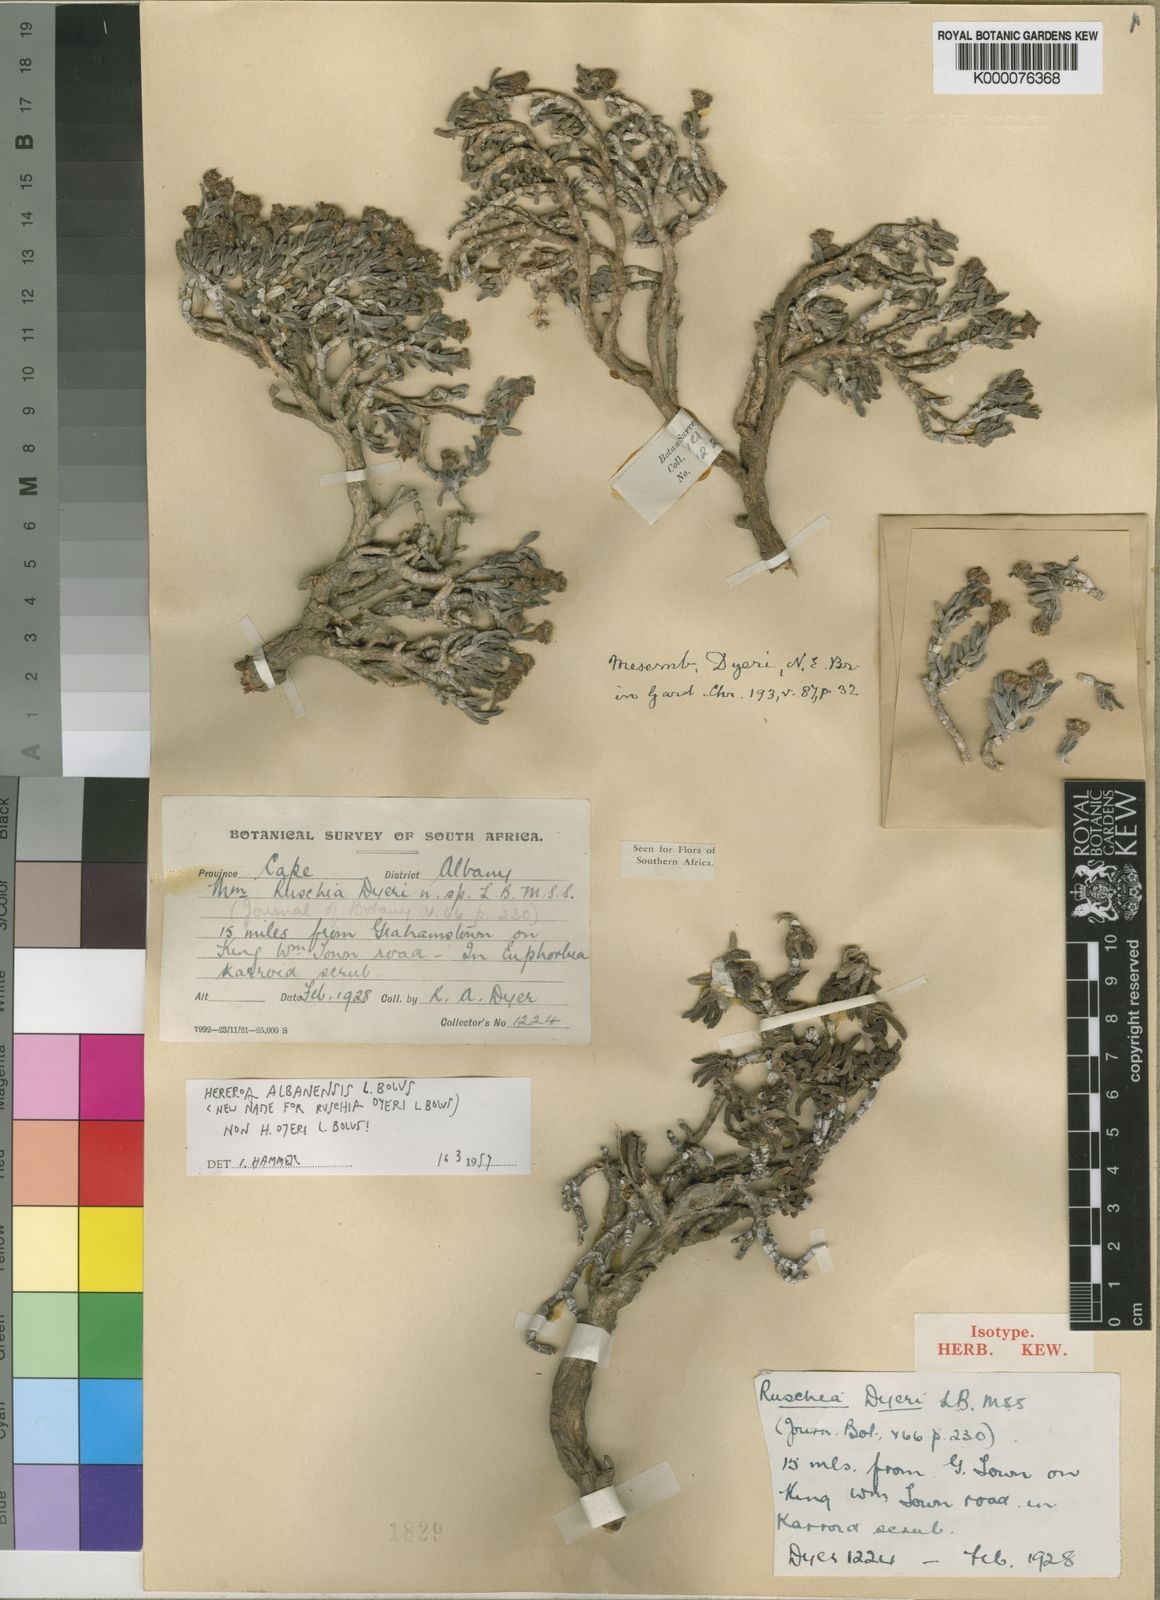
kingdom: Plantae
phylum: Tracheophyta
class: Magnoliopsida
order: Caryophyllales
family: Aizoaceae
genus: Dracophilus
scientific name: Dracophilus Rhombophyllum albanense
